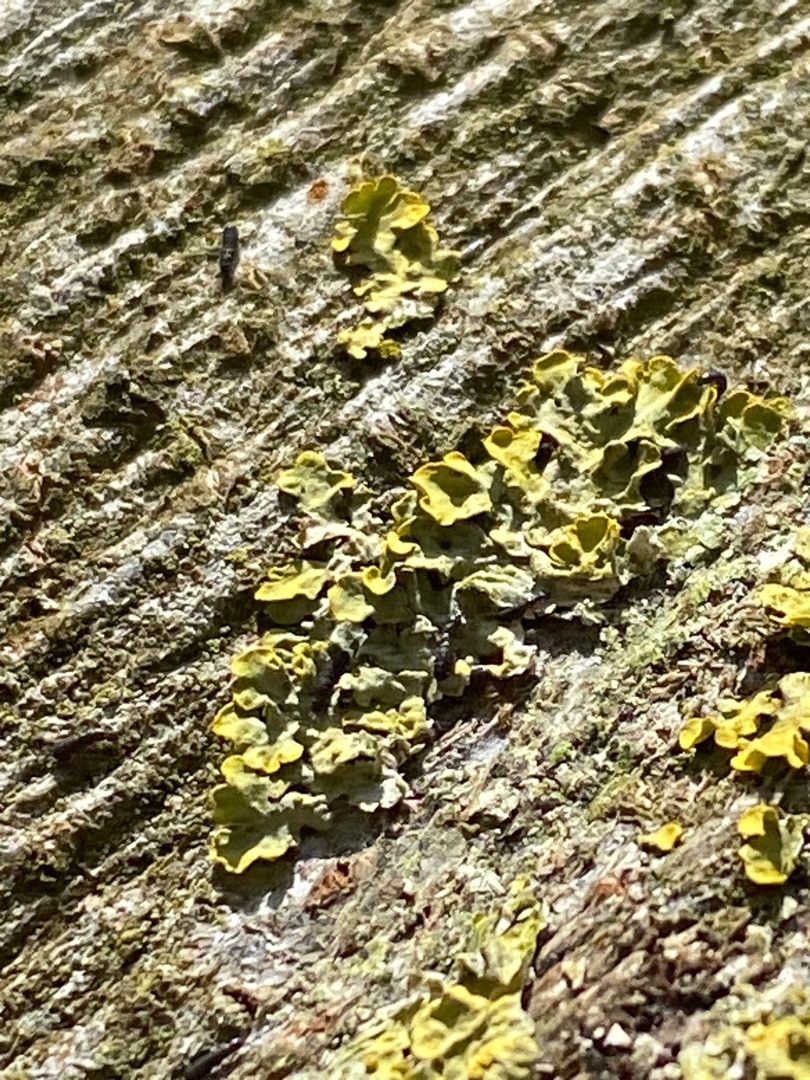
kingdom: Fungi
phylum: Ascomycota
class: Lecanoromycetes
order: Teloschistales
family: Teloschistaceae
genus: Xanthoria
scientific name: Xanthoria parietina
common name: Almindelig væggelav
